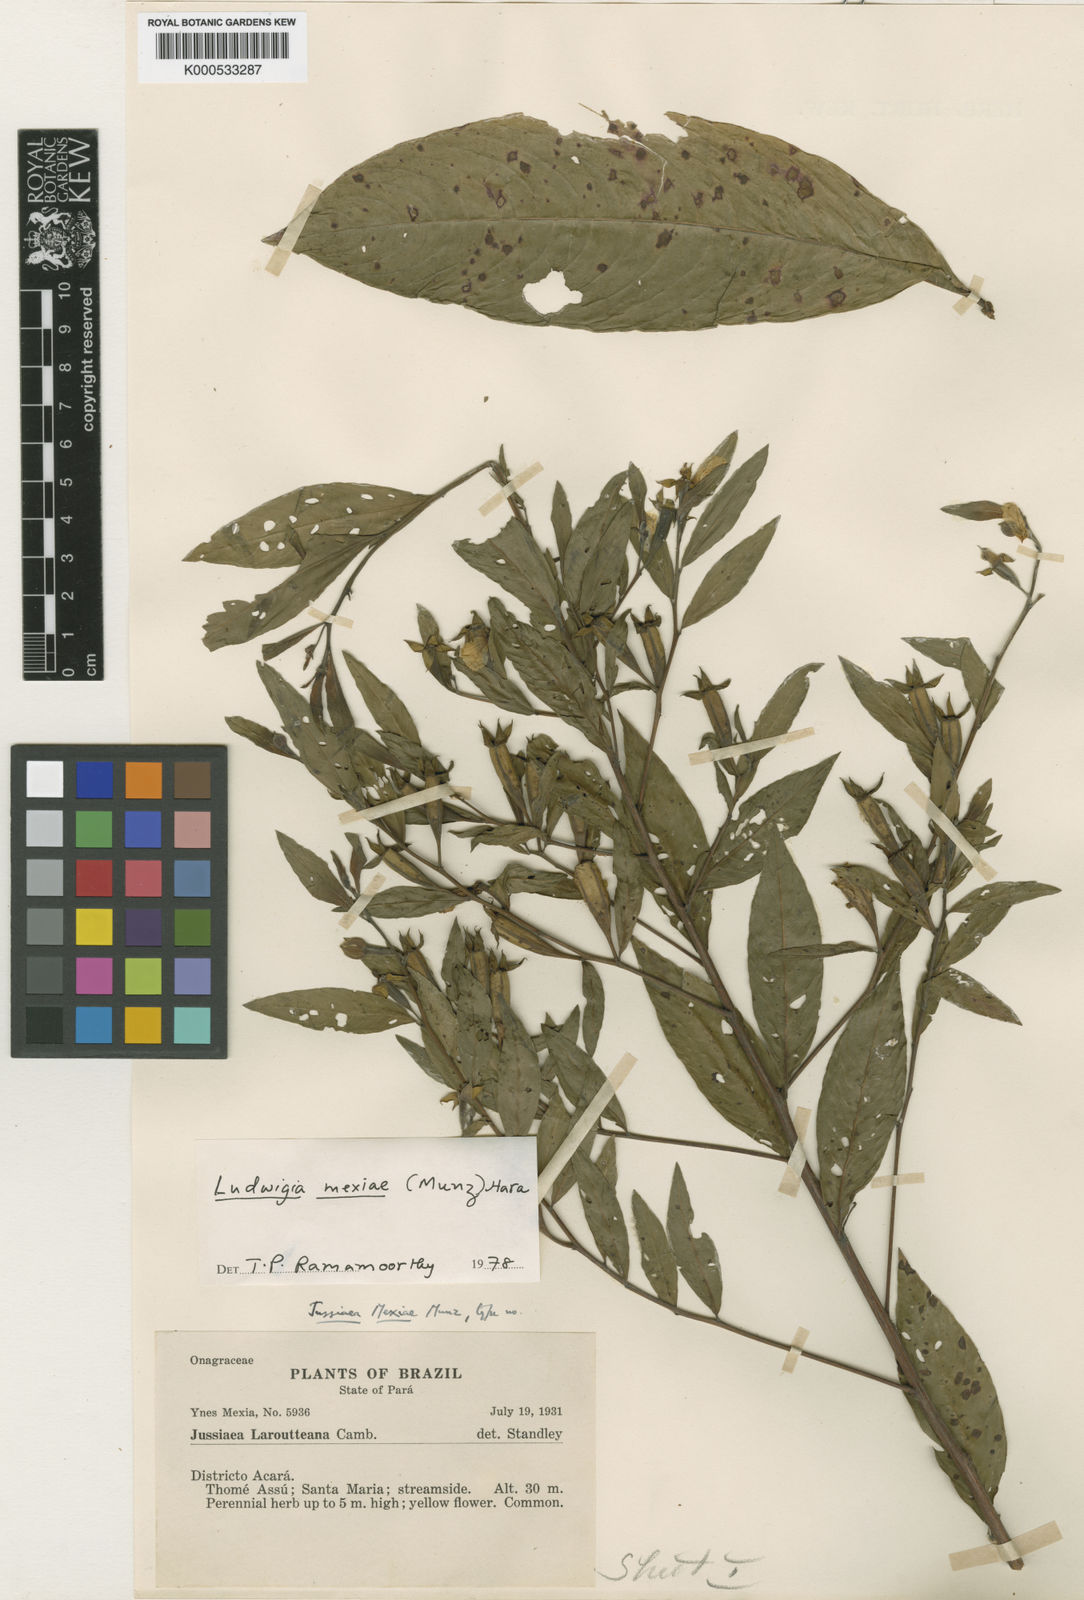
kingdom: Plantae
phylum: Tracheophyta
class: Magnoliopsida
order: Myrtales
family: Onagraceae
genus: Ludwigia
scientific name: Ludwigia mexiae
